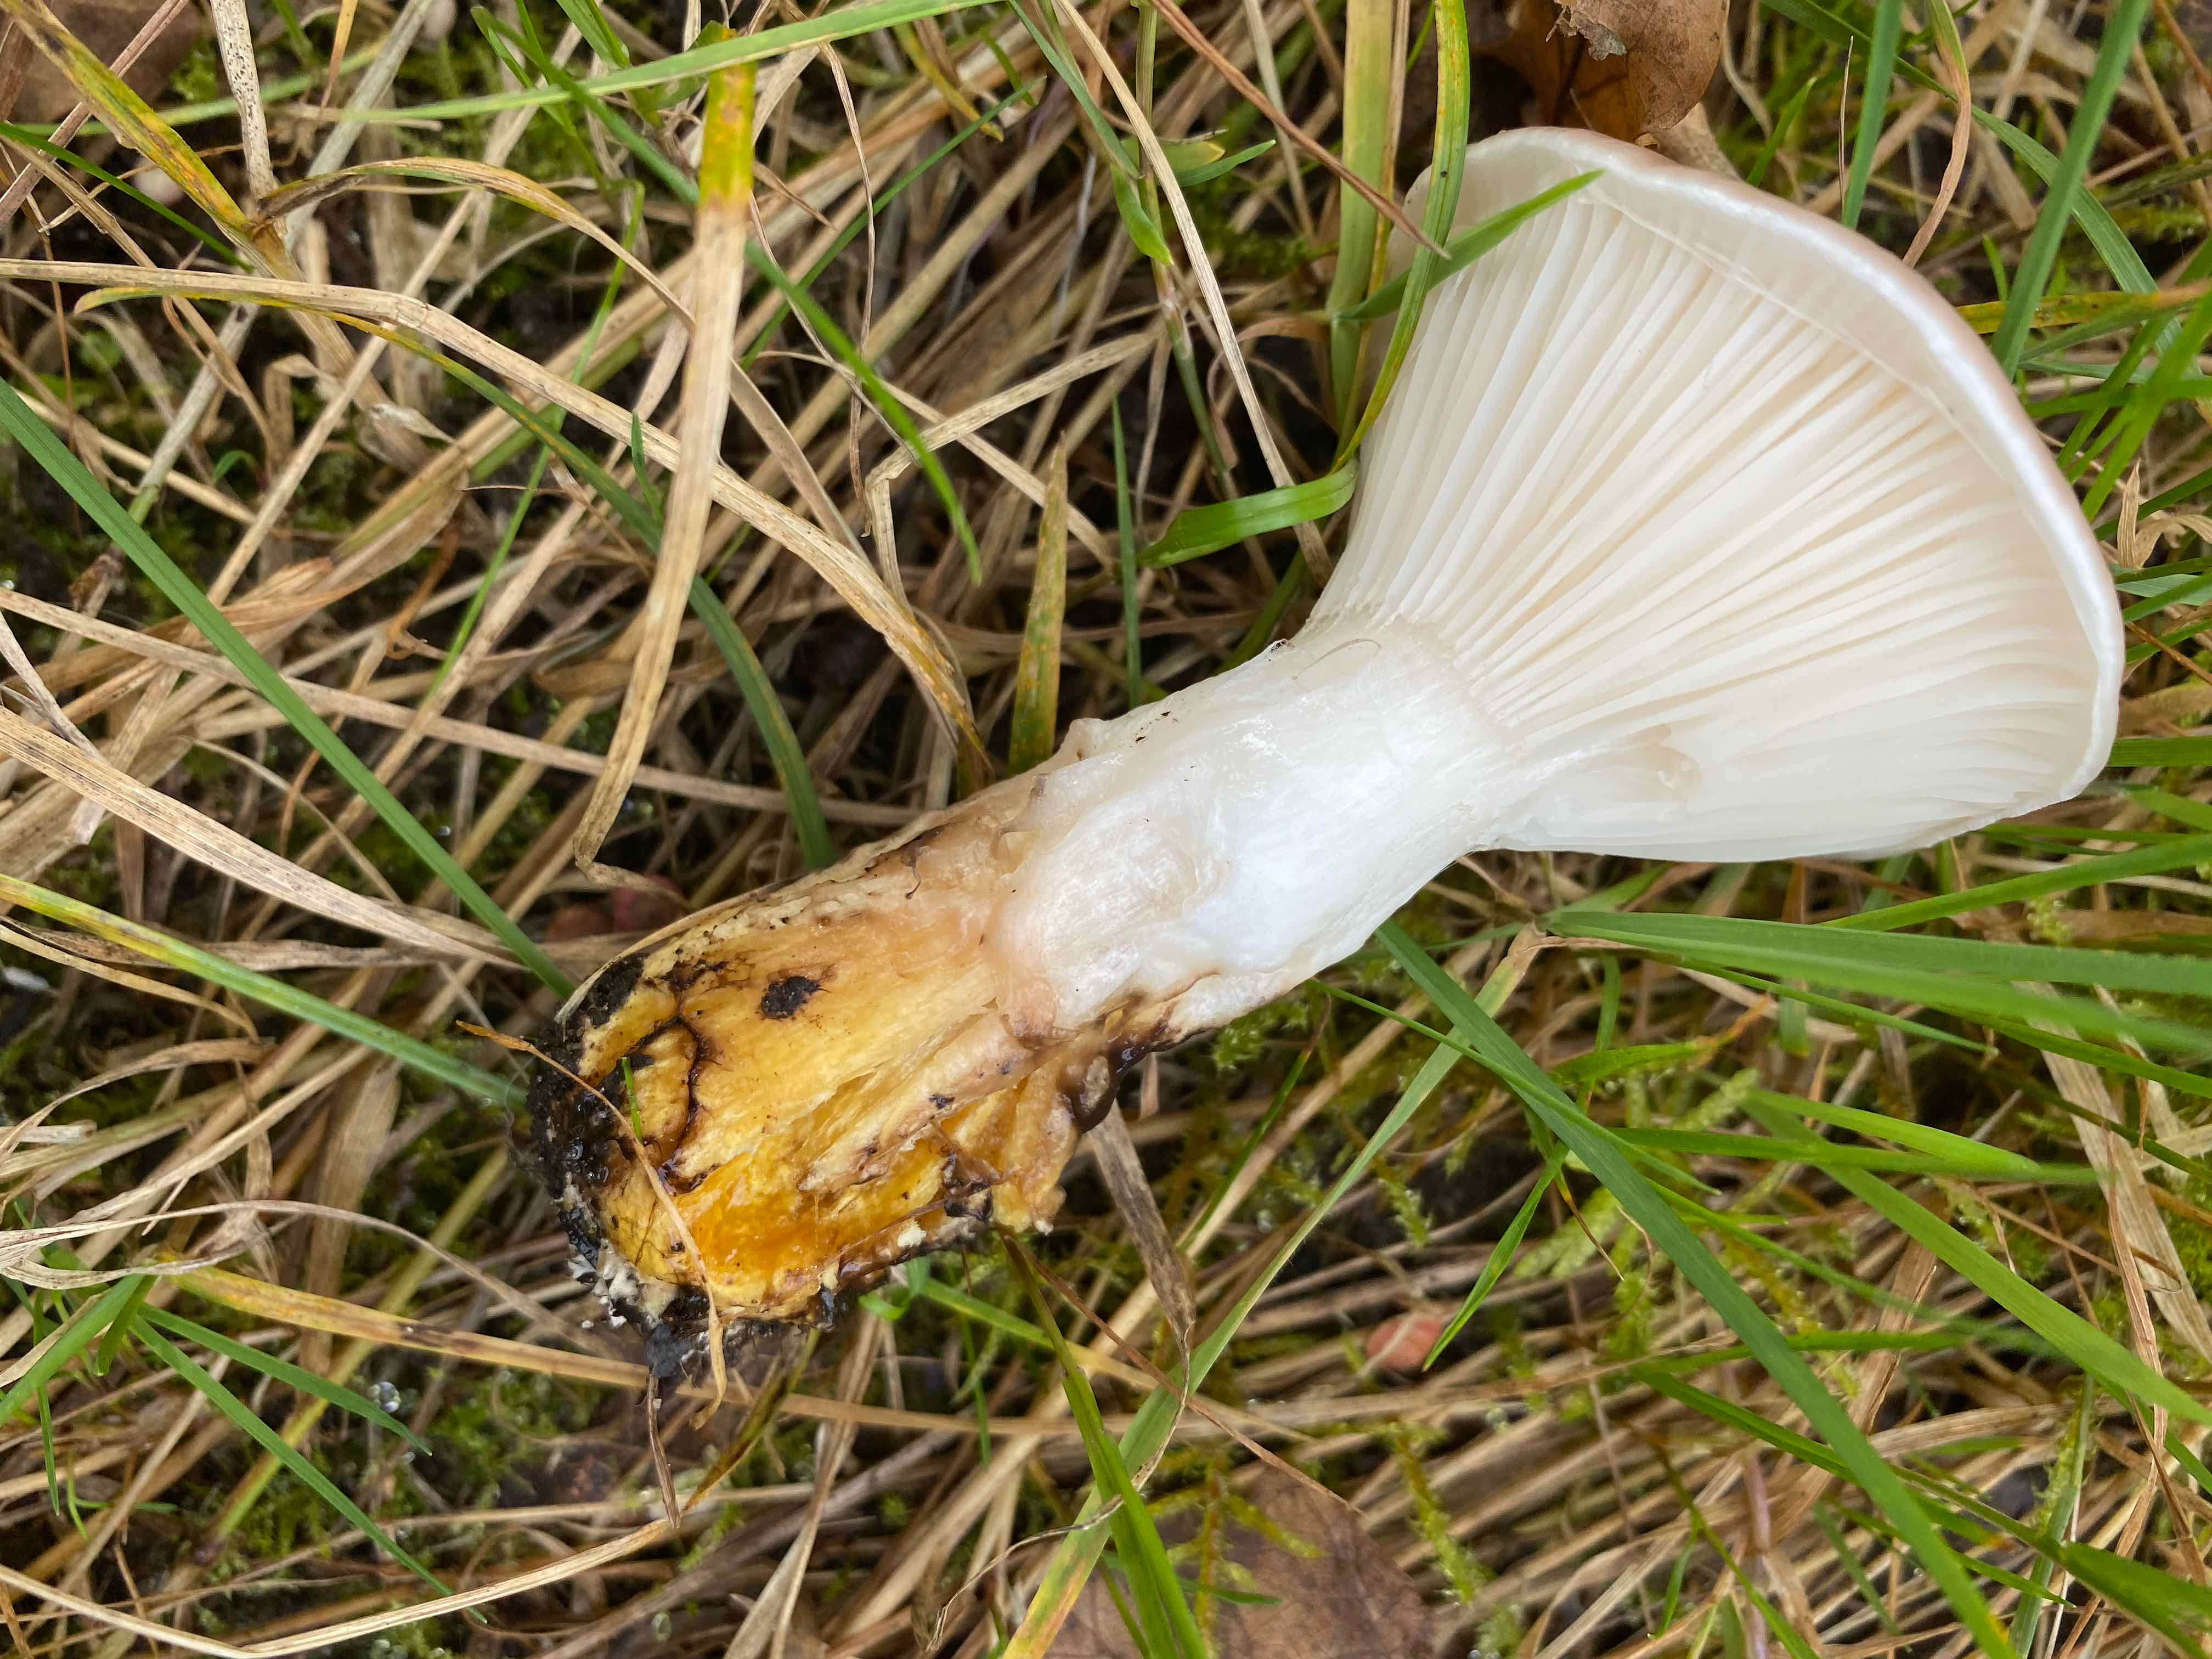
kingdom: Fungi
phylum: Basidiomycota
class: Agaricomycetes
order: Boletales
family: Gomphidiaceae
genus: Gomphidius
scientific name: Gomphidius glutinosus
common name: grå slimslør
